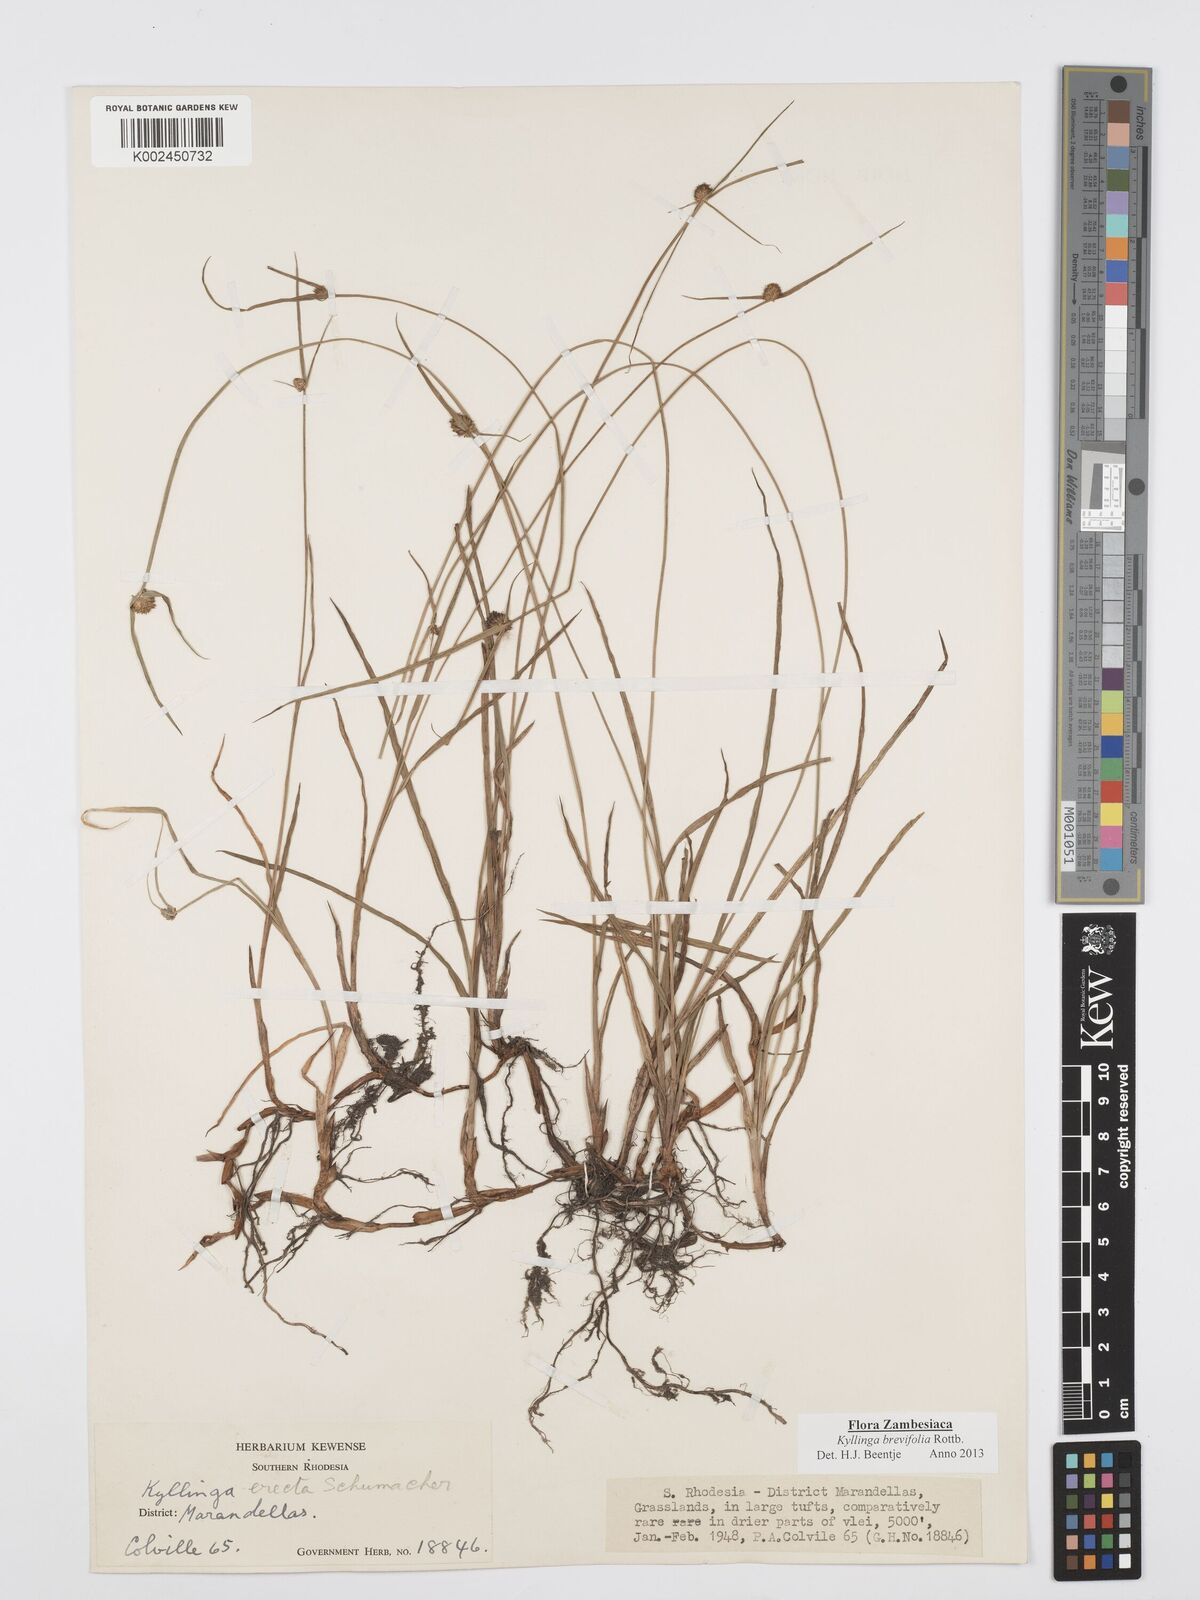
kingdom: Plantae
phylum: Tracheophyta
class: Liliopsida
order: Poales
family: Cyperaceae
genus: Cyperus
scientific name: Cyperus brevifolius
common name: Globe kyllinga
